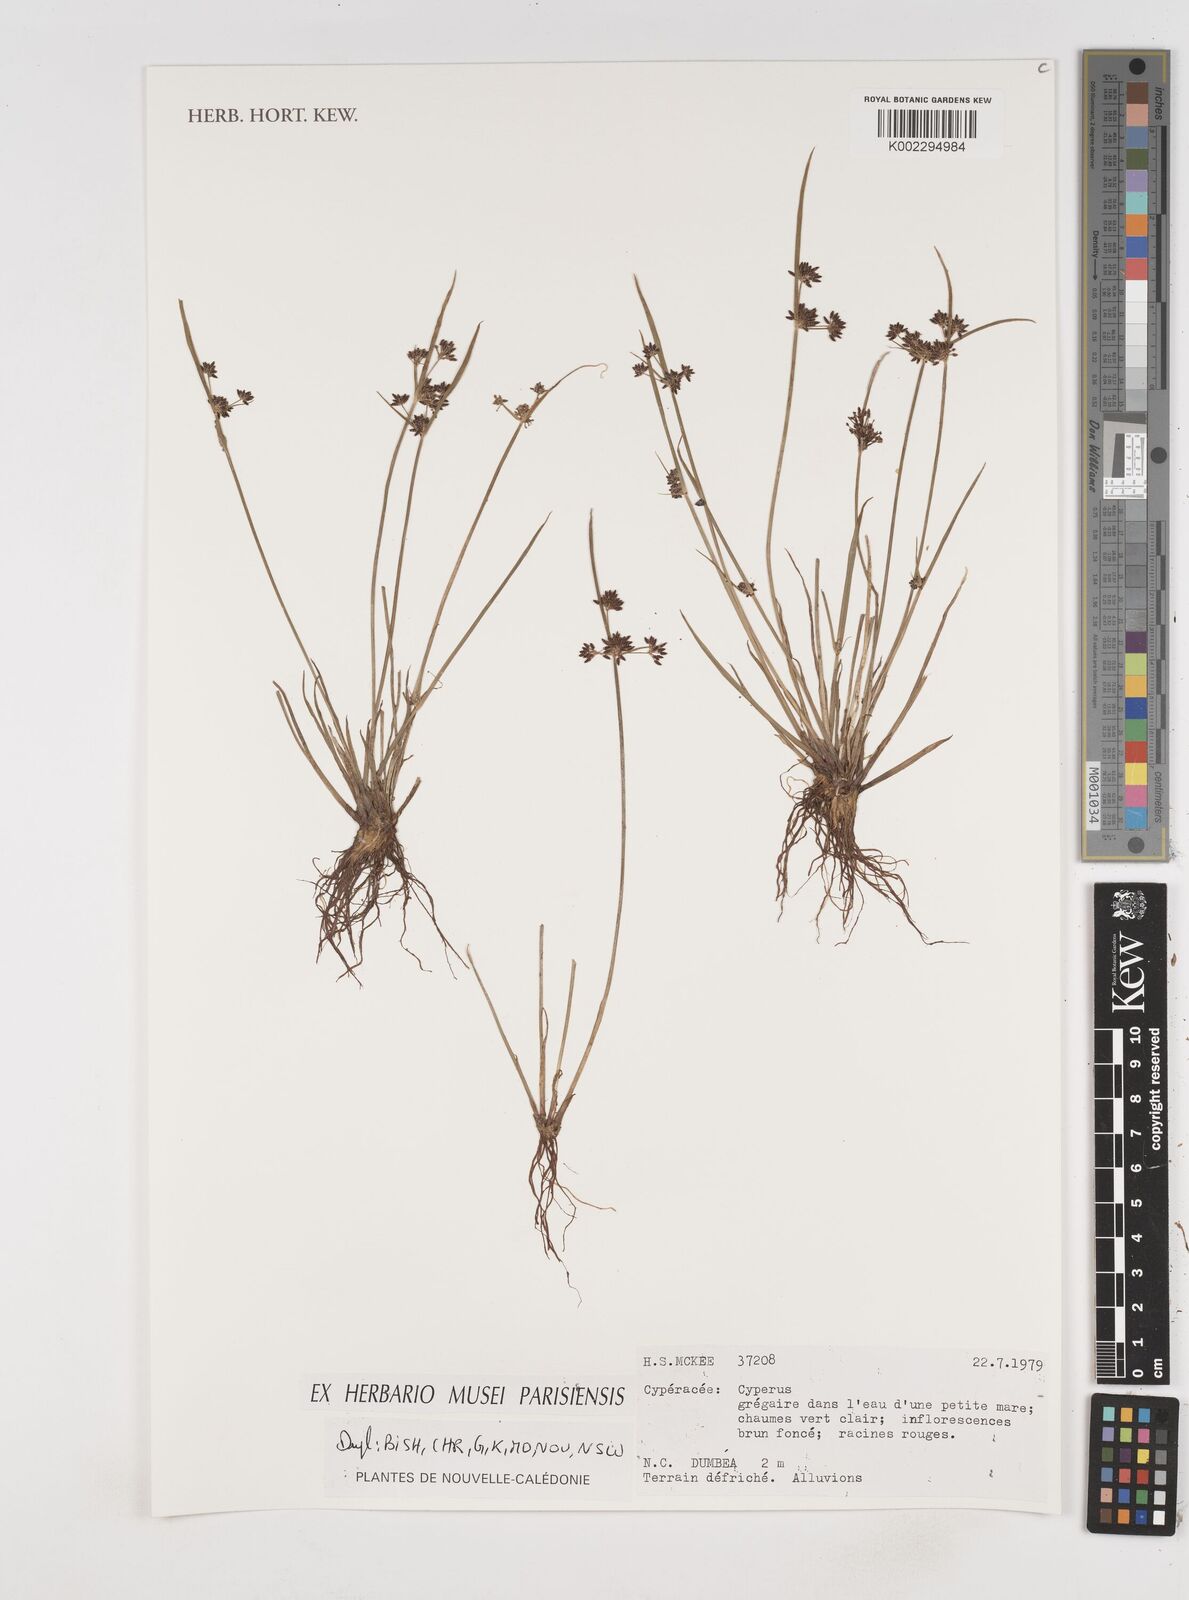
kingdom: Plantae
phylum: Tracheophyta
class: Liliopsida
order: Poales
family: Cyperaceae
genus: Cyperus
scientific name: Cyperus
